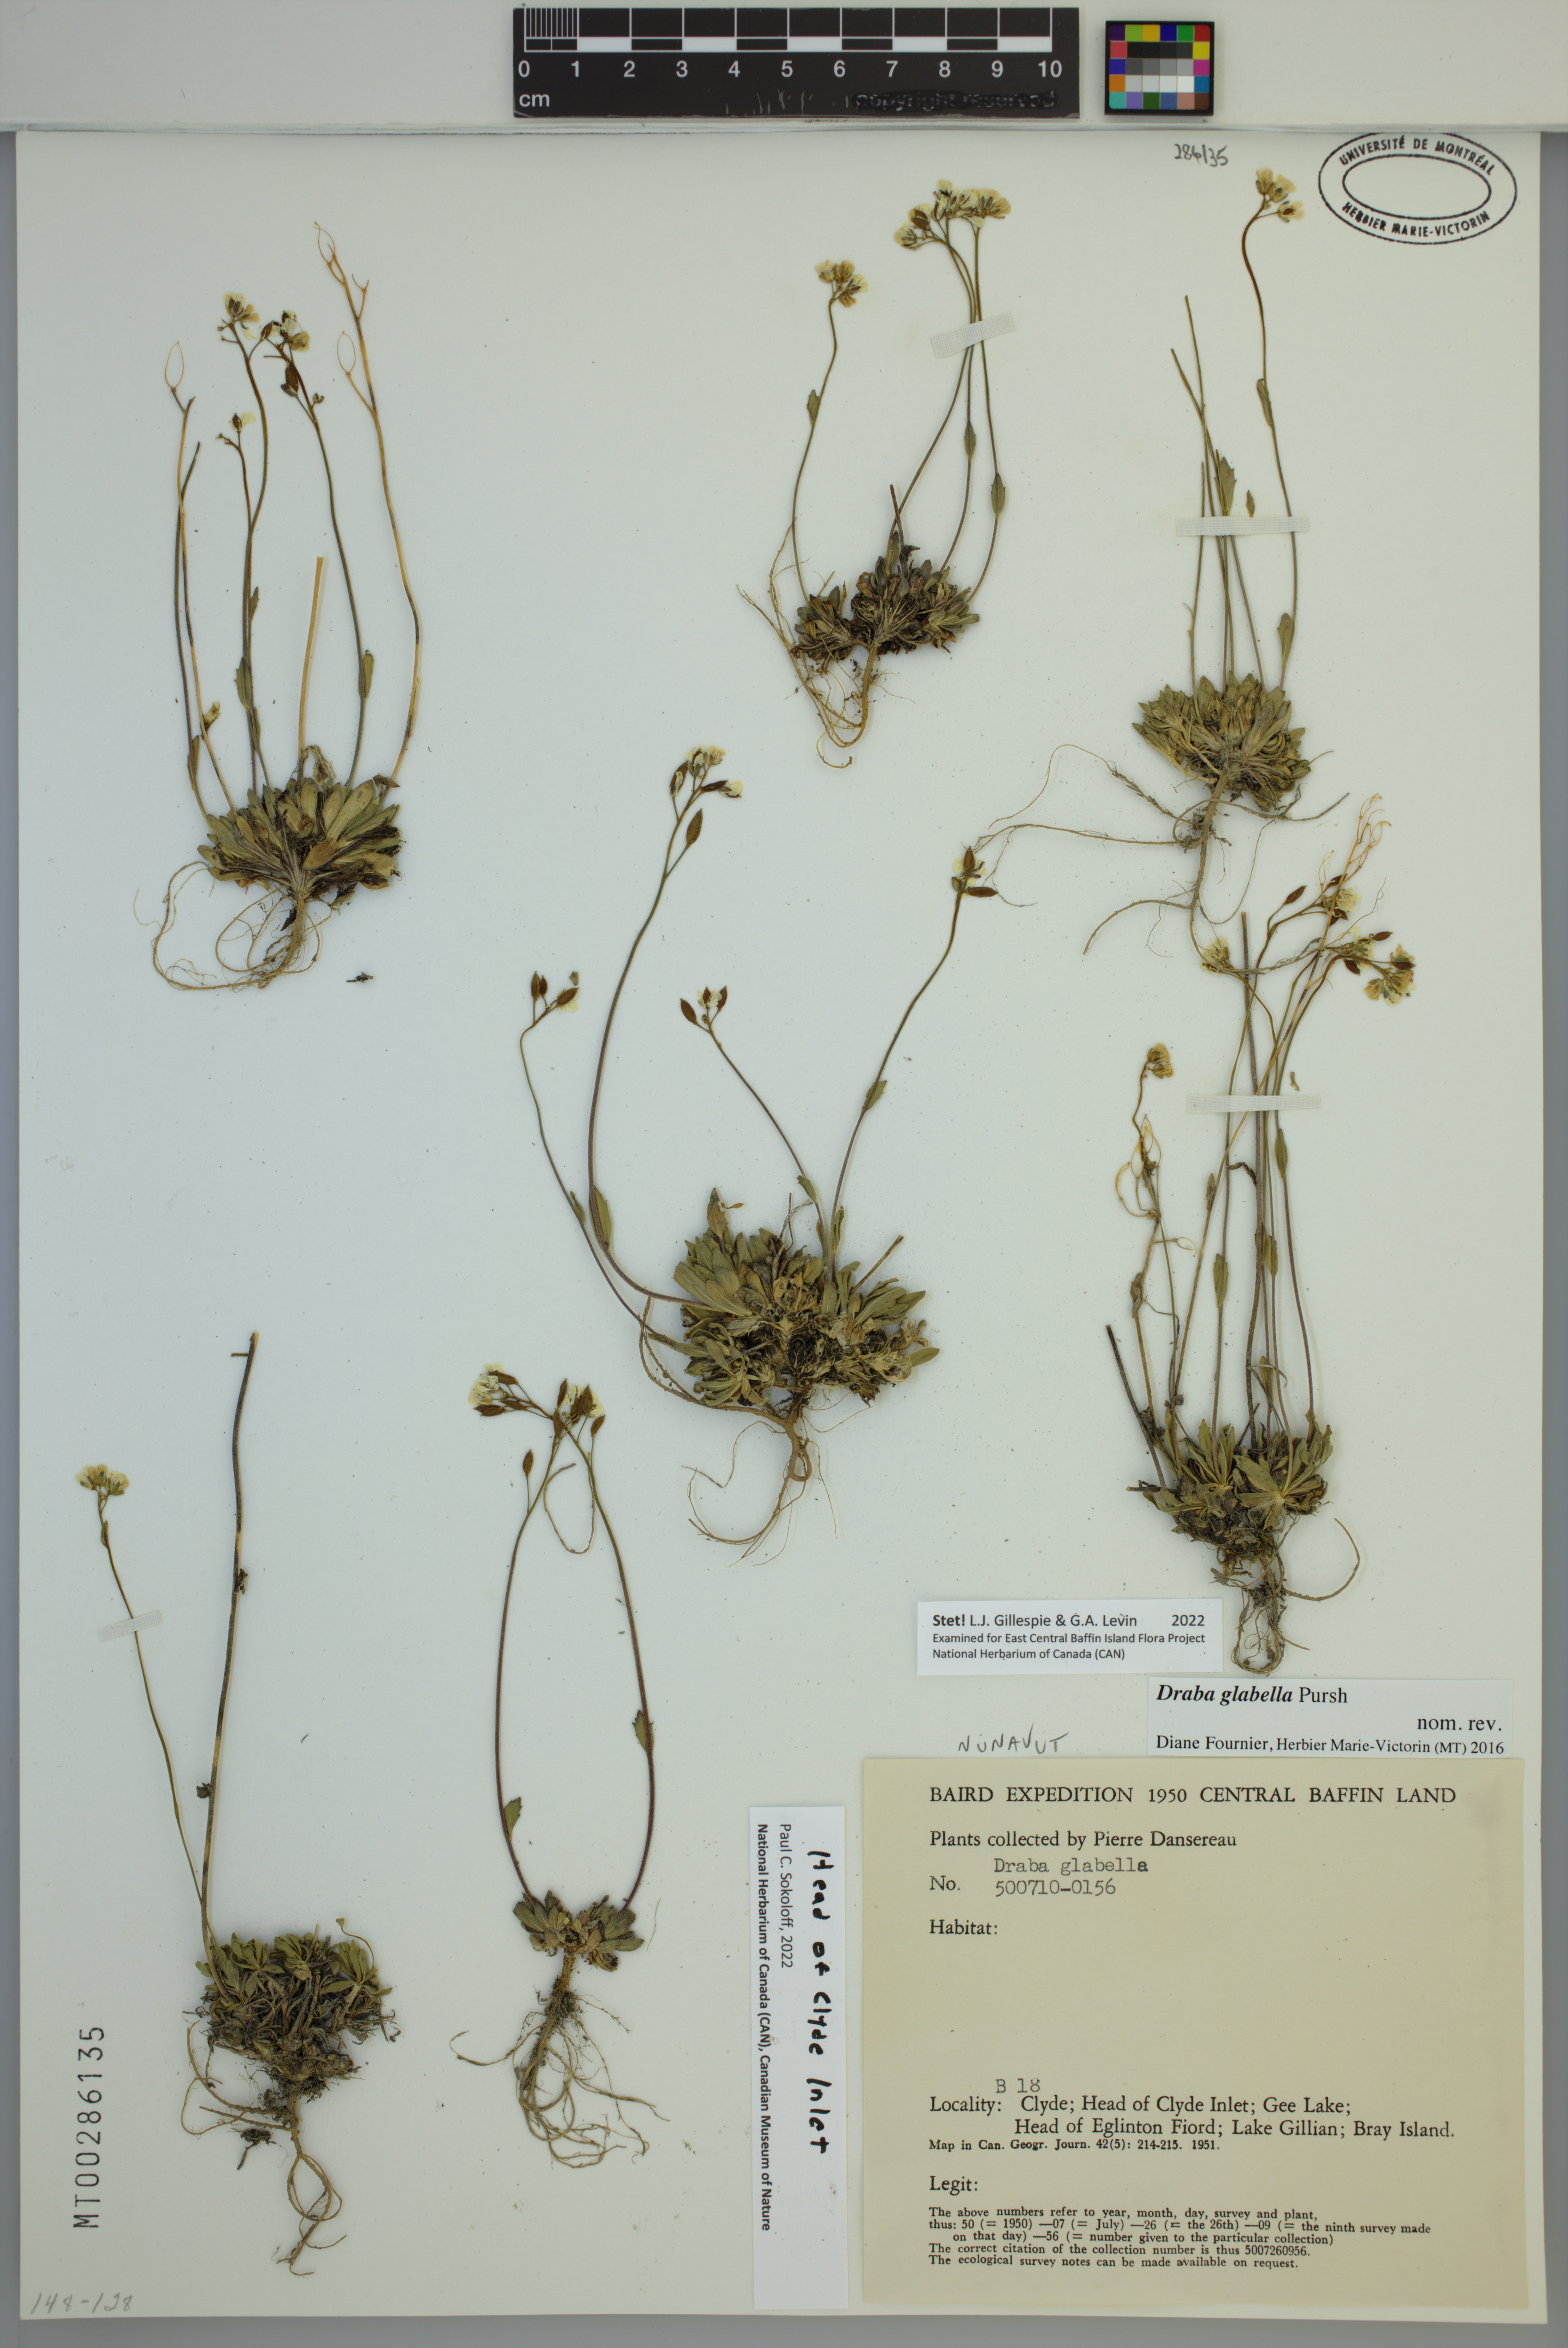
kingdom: Plantae
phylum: Tracheophyta
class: Magnoliopsida
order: Brassicales
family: Brassicaceae
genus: Draba
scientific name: Draba glabella
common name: Glaucous draba
